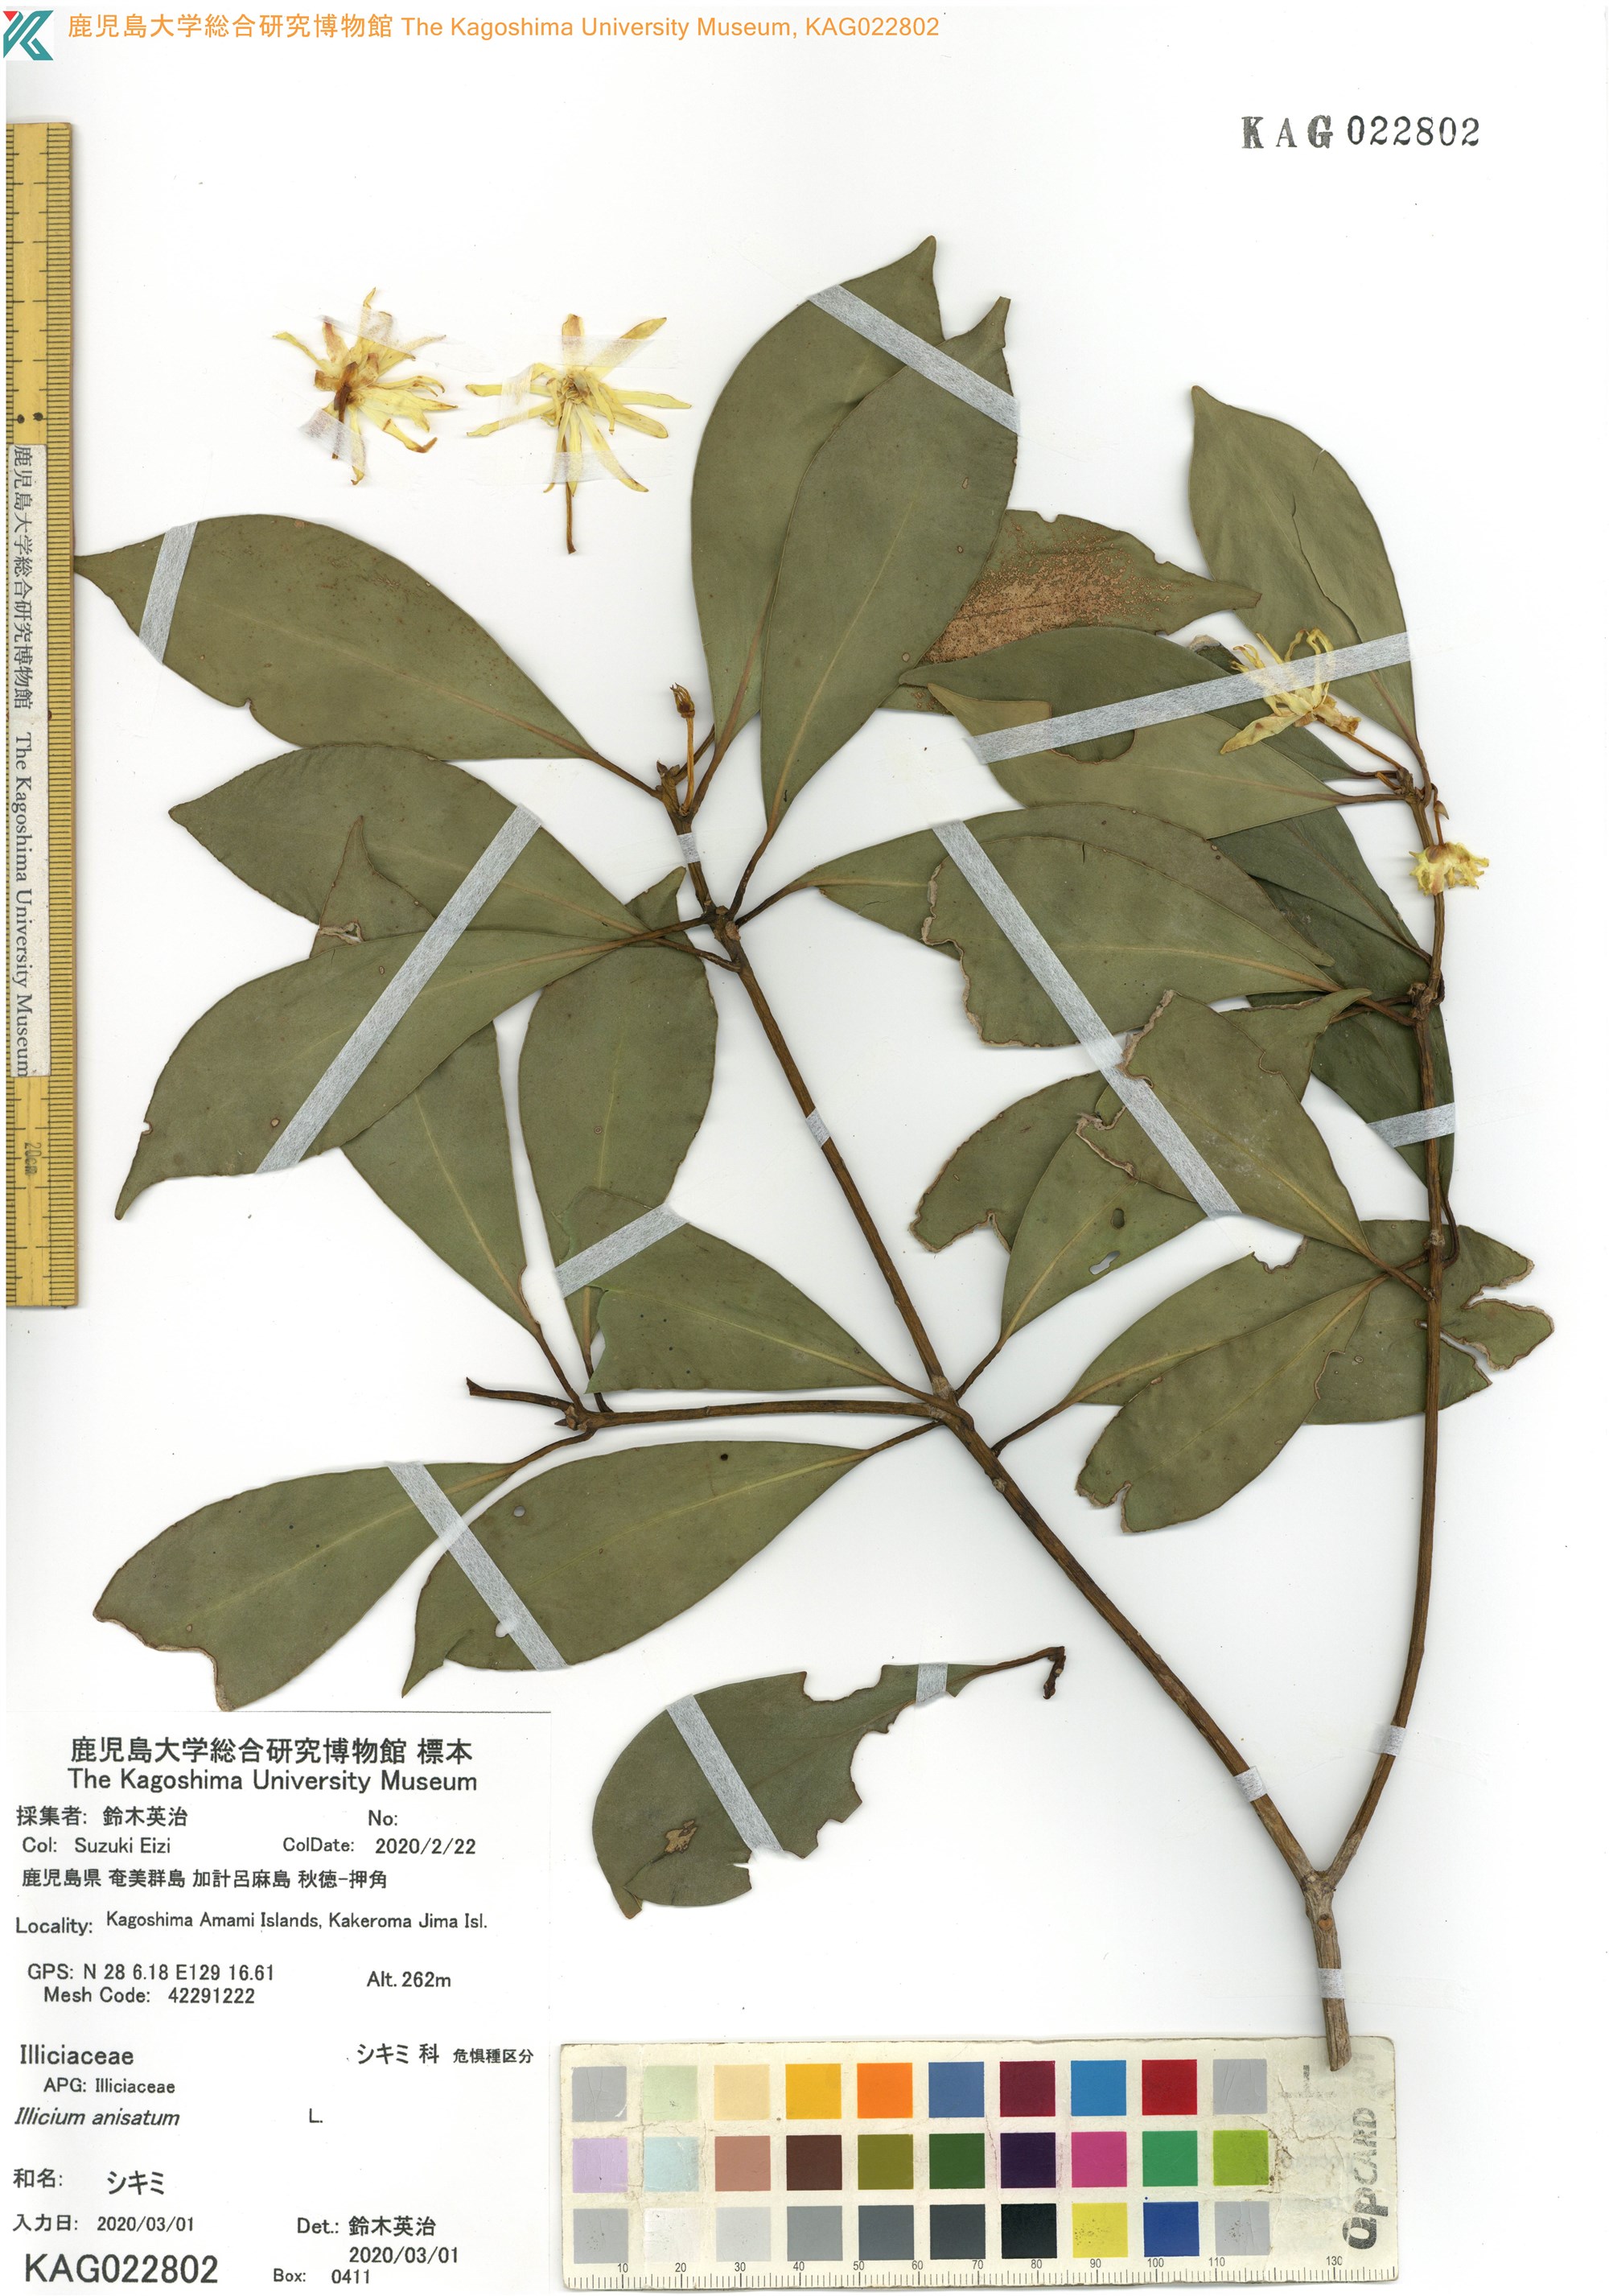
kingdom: Plantae
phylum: Tracheophyta
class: Magnoliopsida
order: Austrobaileyales
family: Schisandraceae
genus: Illicium
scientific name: Illicium anisatum
